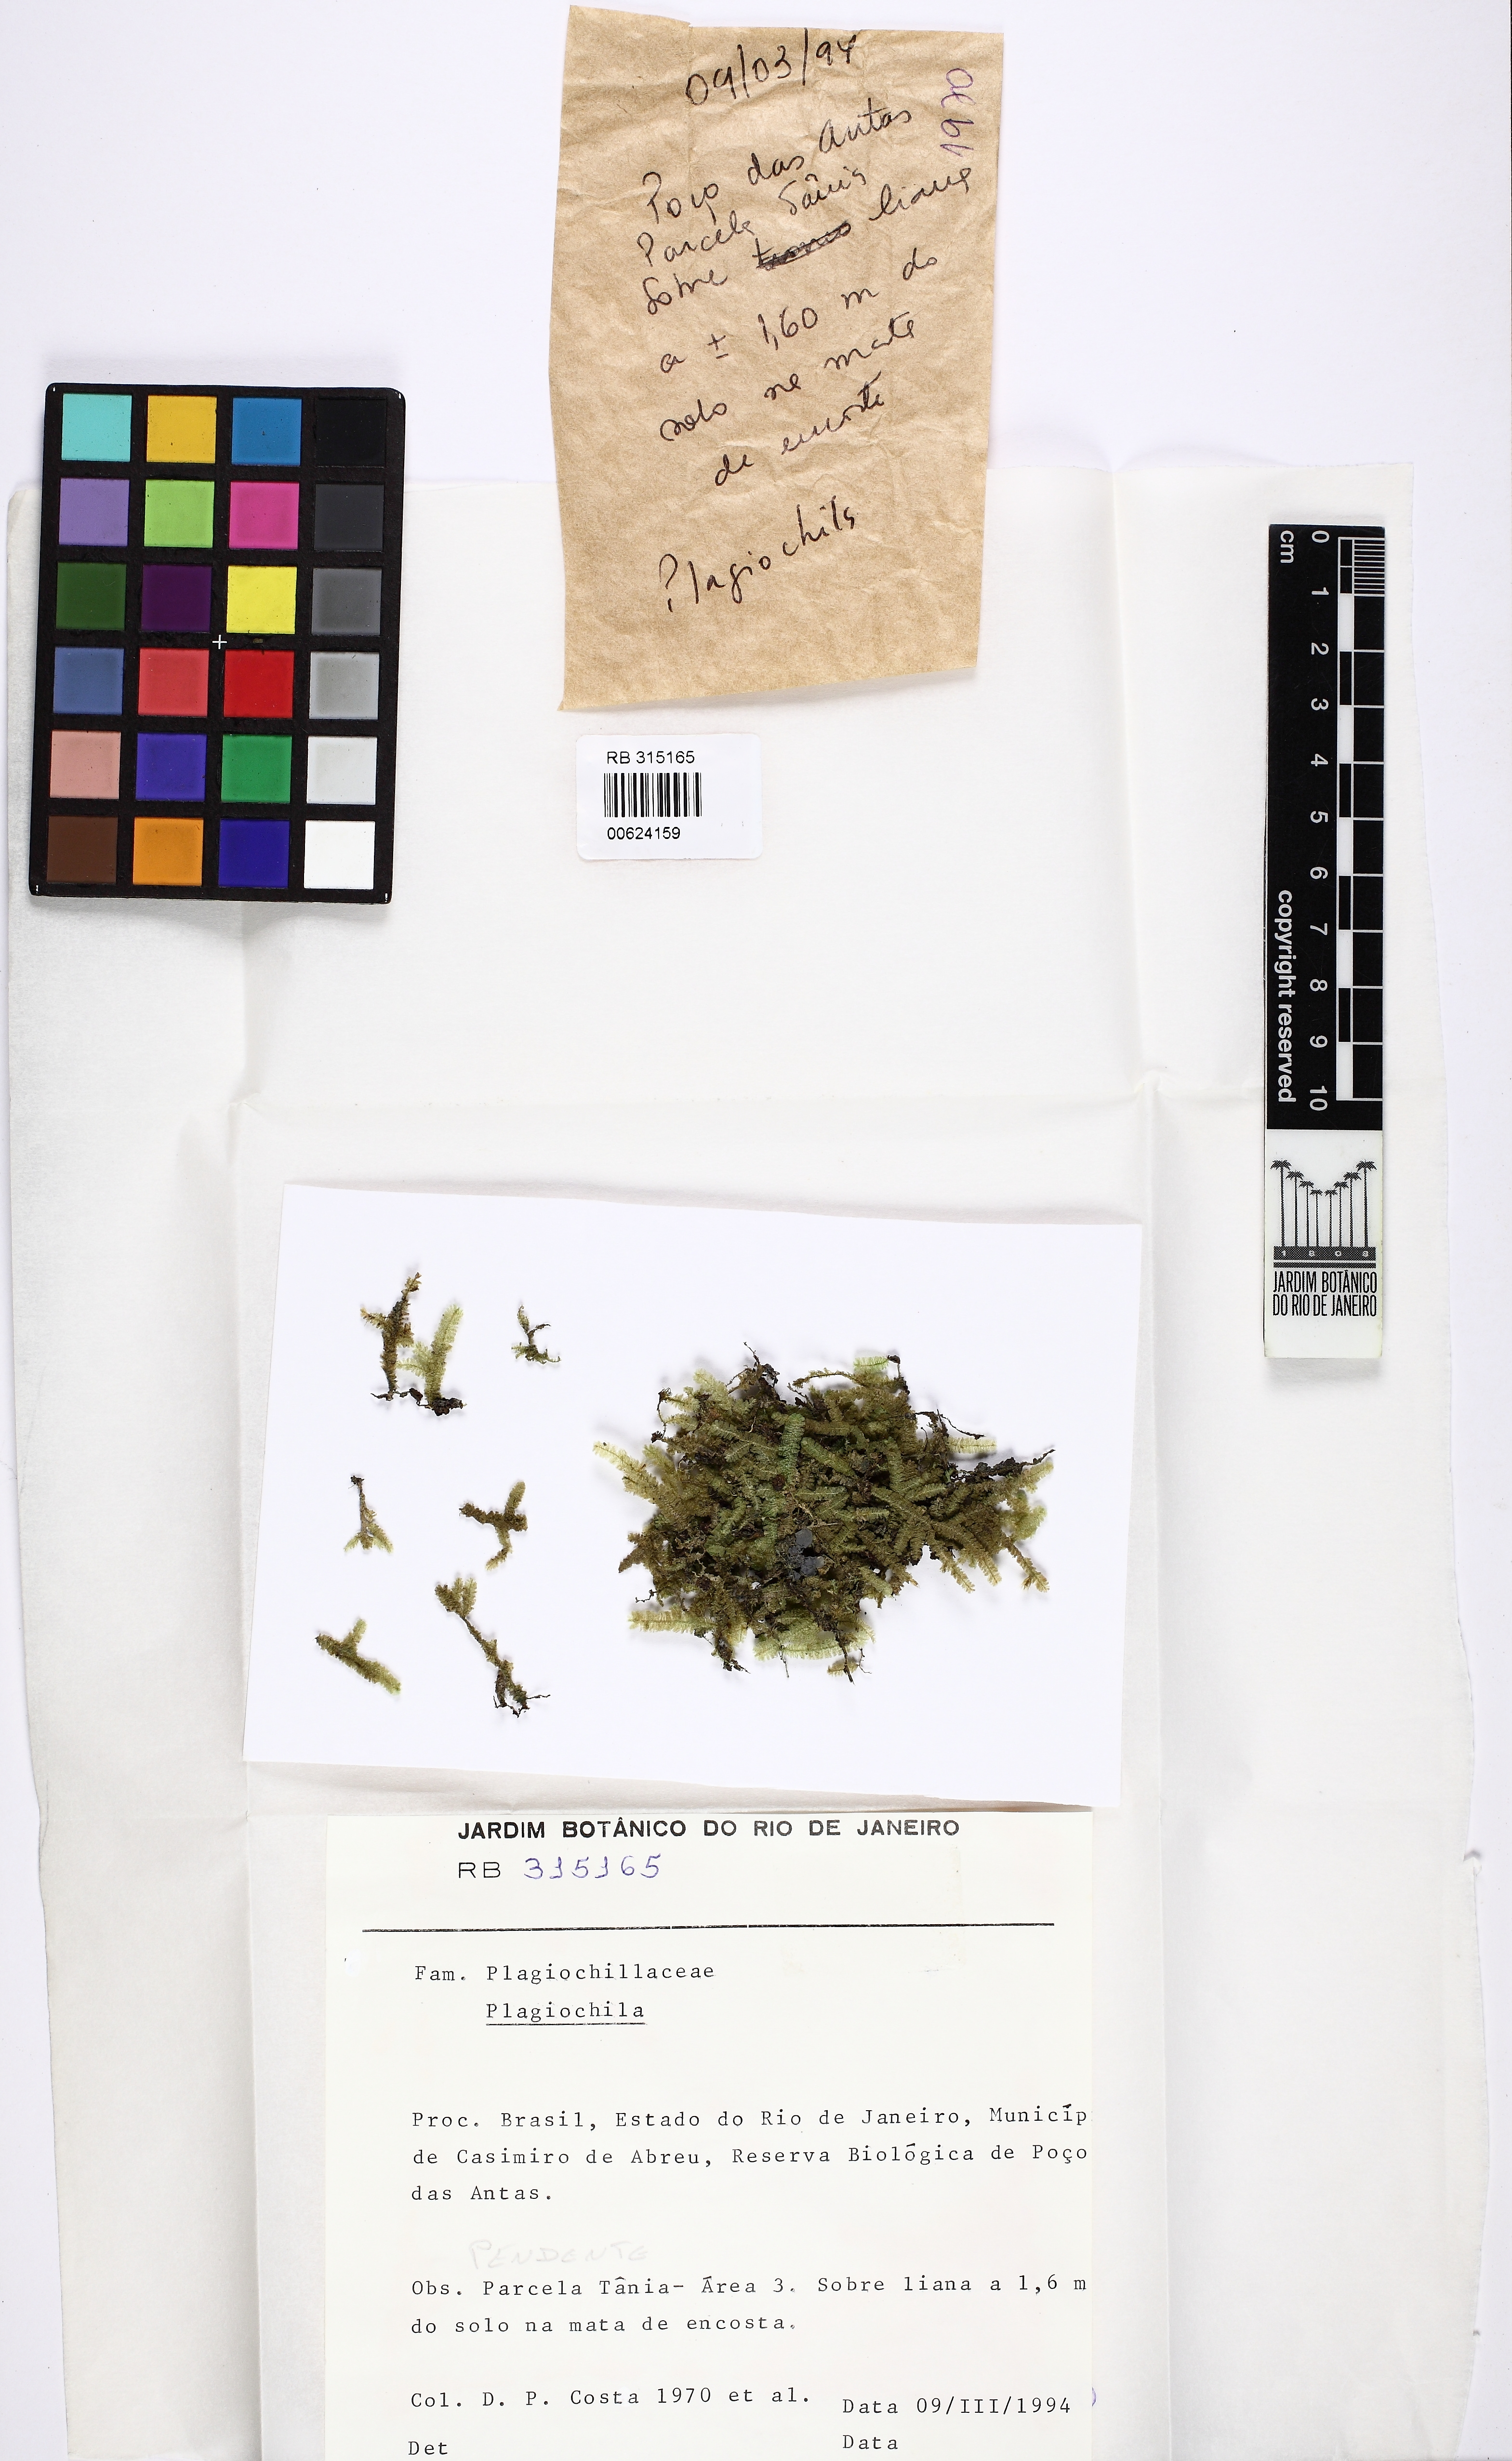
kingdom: Plantae
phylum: Marchantiophyta
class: Jungermanniopsida
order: Jungermanniales
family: Plagiochilaceae
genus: Plagiochila
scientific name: Plagiochila
